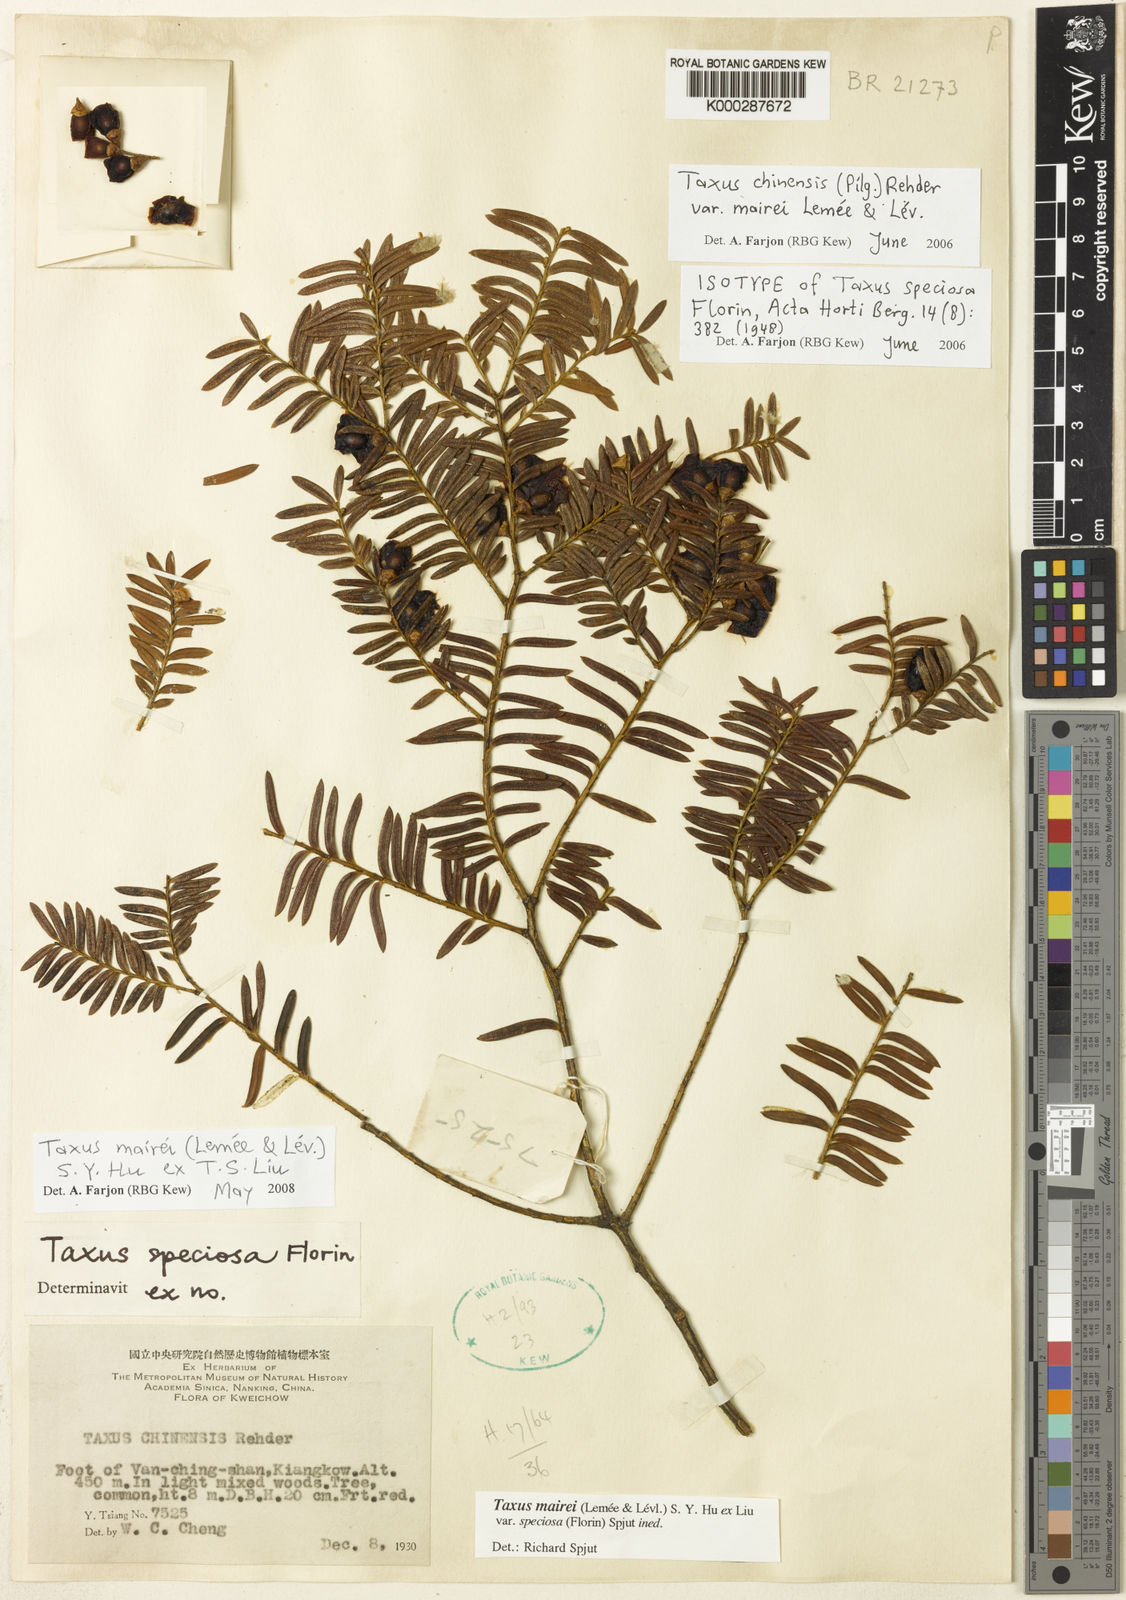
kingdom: Plantae
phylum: Tracheophyta
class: Pinopsida
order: Pinales
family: Taxaceae
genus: Taxus
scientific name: Taxus chinensis
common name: Chinese yew
